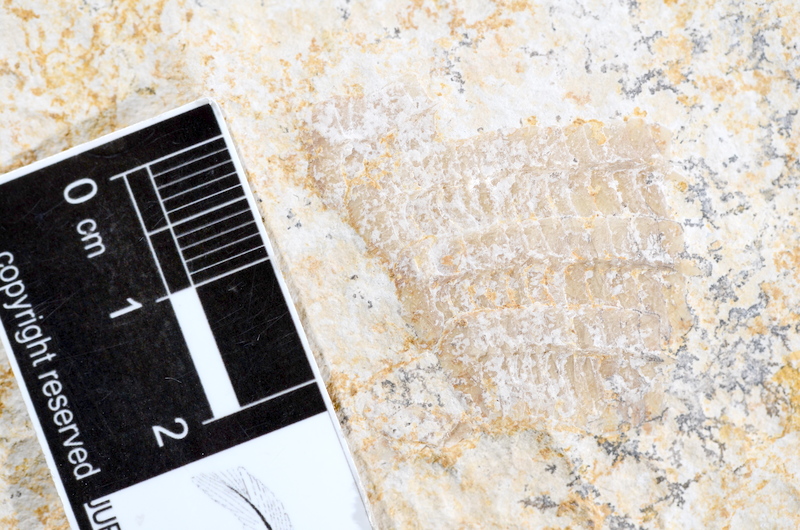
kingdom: Animalia
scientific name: Animalia
